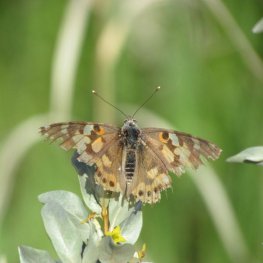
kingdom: Animalia
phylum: Arthropoda
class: Insecta
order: Lepidoptera
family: Nymphalidae
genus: Vanessa
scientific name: Vanessa cardui
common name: Painted Lady
